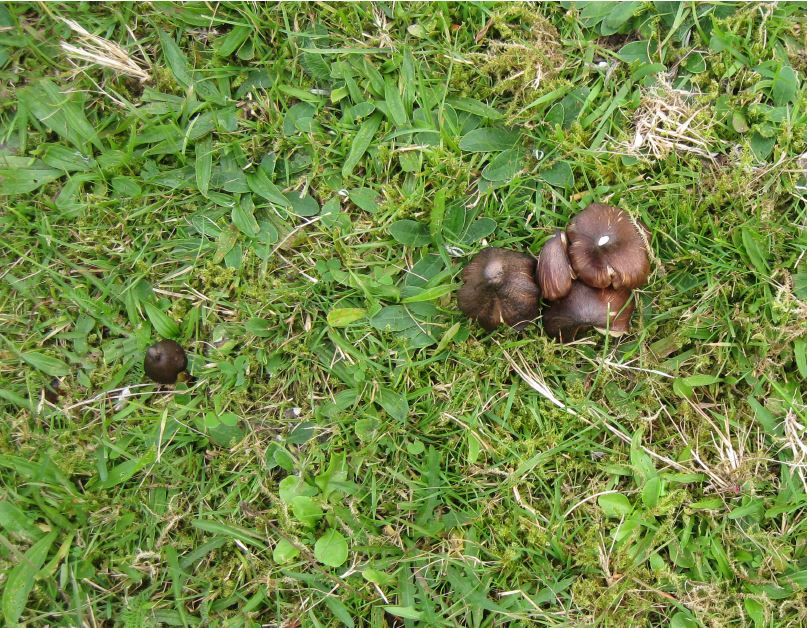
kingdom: Fungi
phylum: Basidiomycota
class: Agaricomycetes
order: Agaricales
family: Hygrophoraceae
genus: Hygrocybe
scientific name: Hygrocybe spadicea
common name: daddelbrun vokshat
